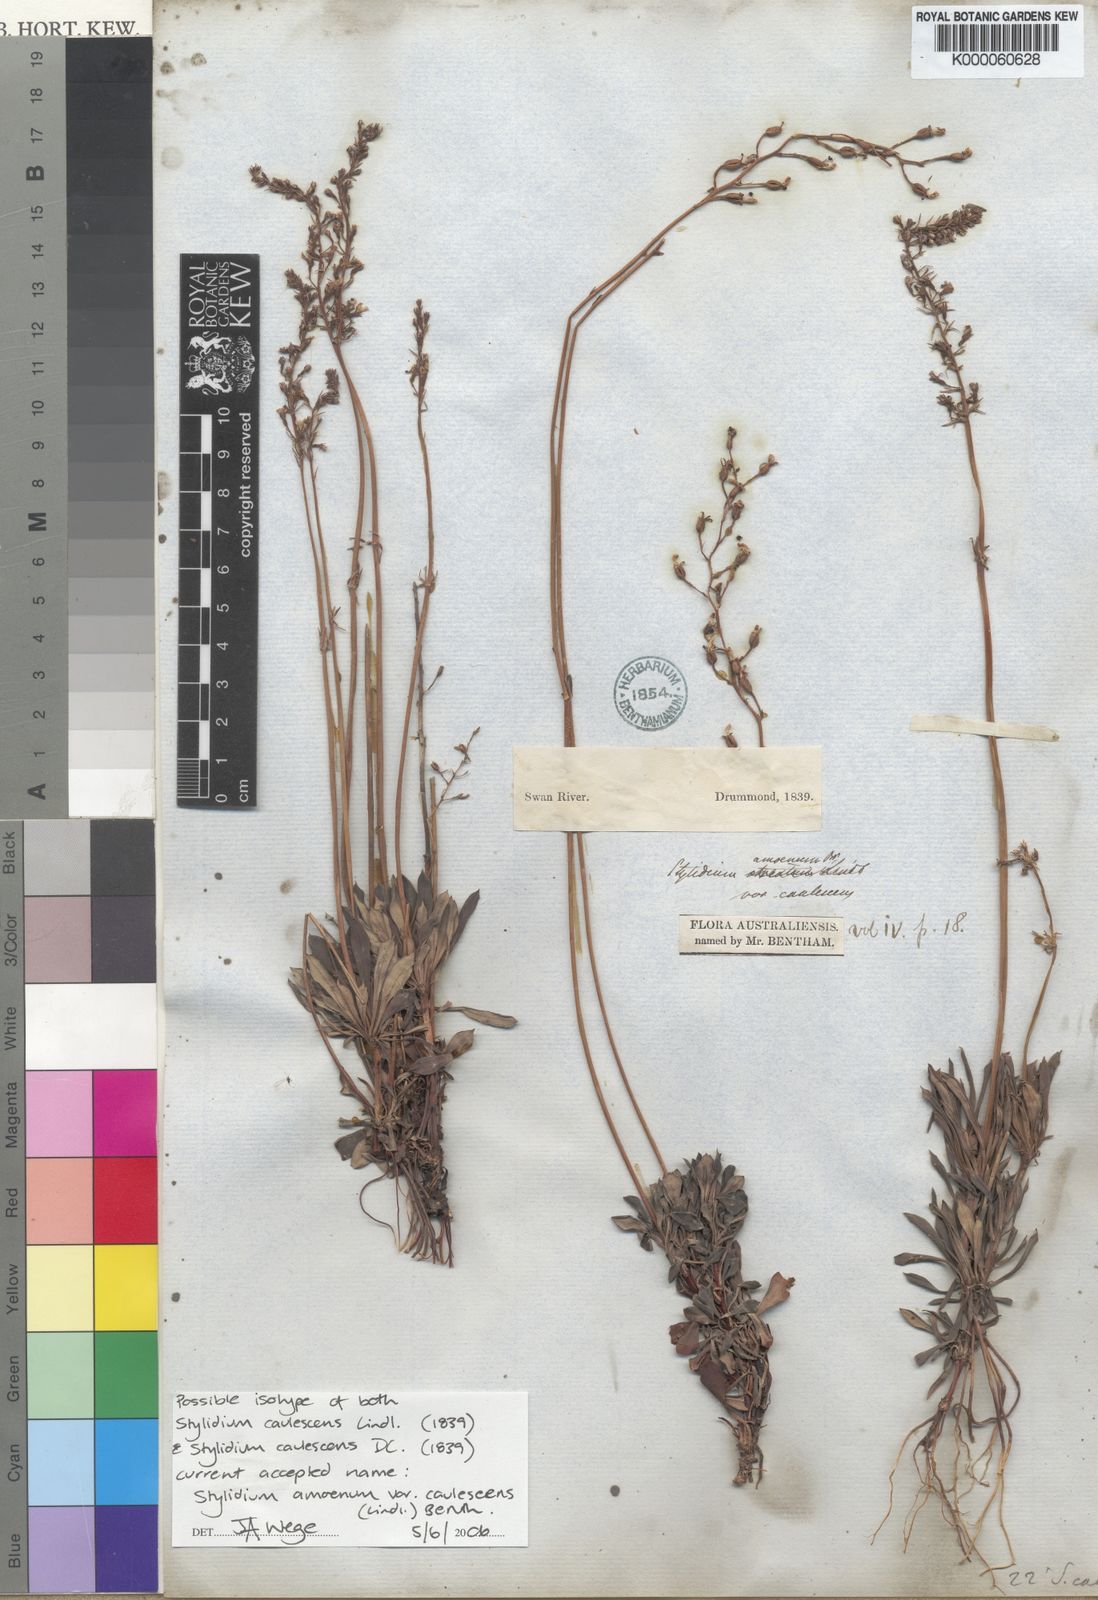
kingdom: Plantae
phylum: Tracheophyta
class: Magnoliopsida
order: Asterales
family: Stylidiaceae
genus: Stylidium
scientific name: Stylidium amoenum
